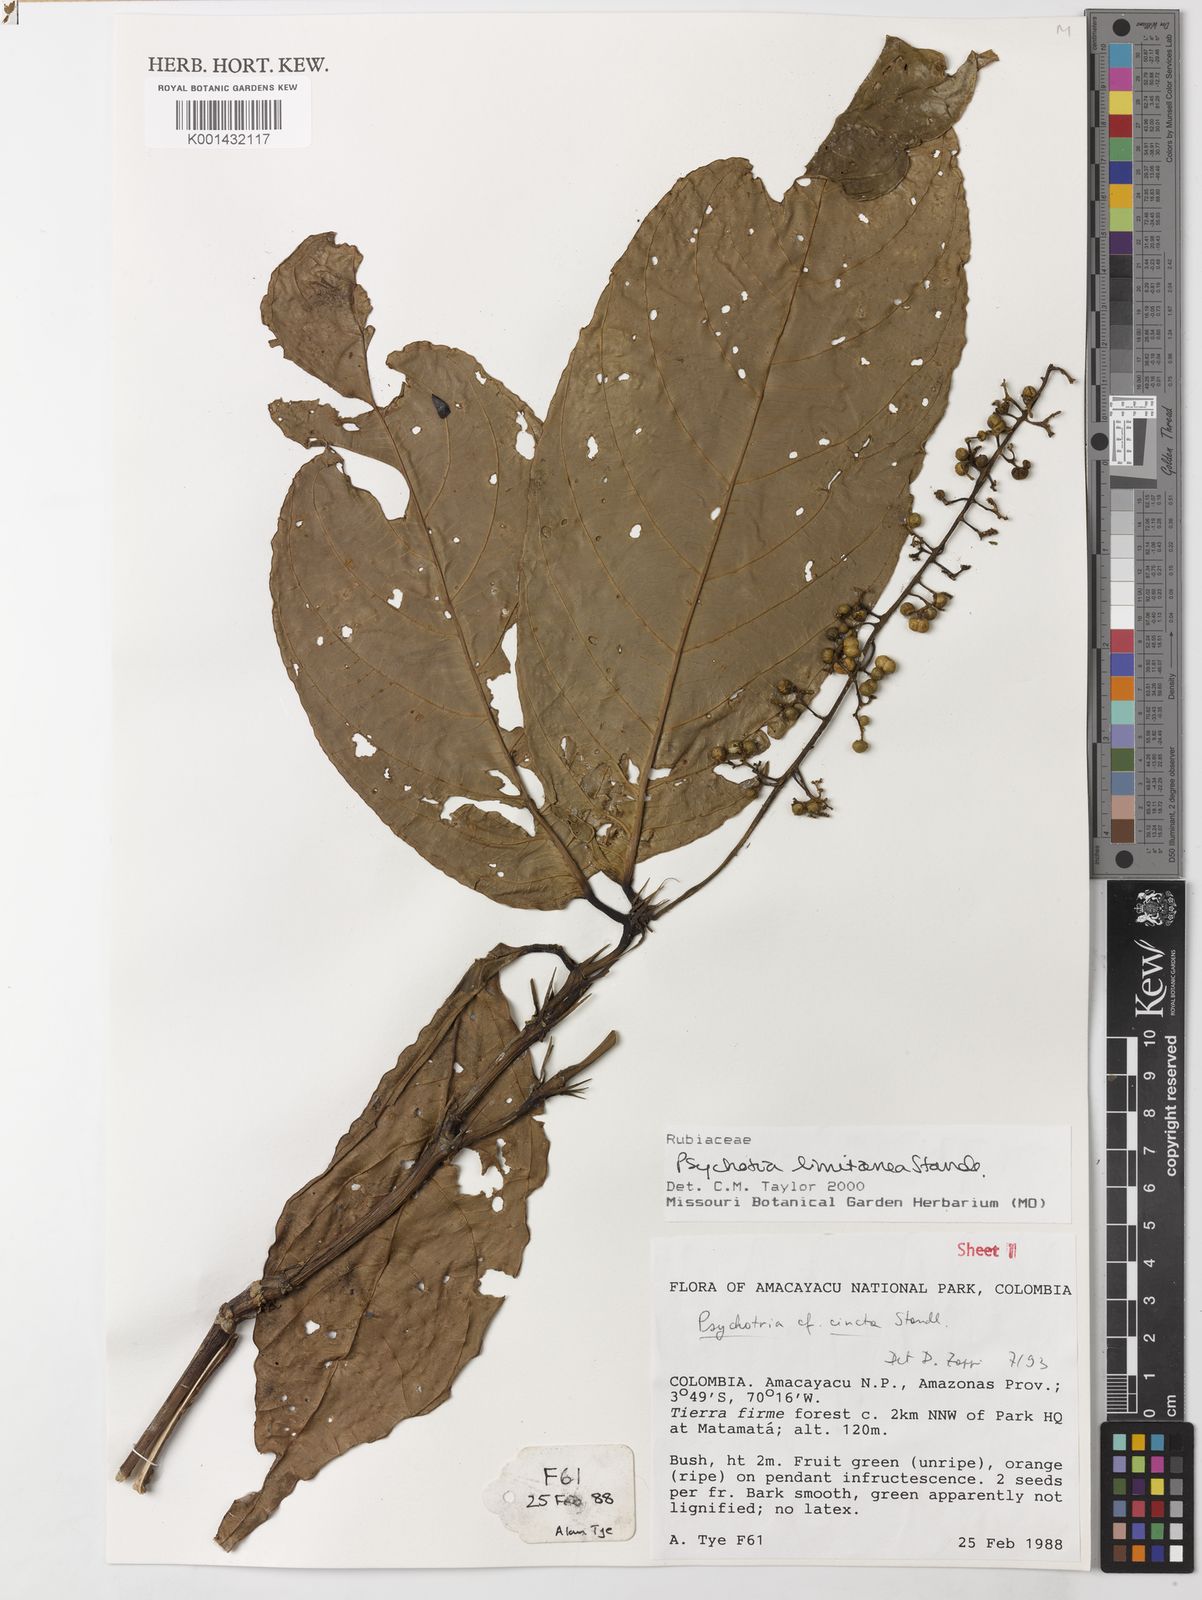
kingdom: Plantae
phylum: Tracheophyta
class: Magnoliopsida
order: Gentianales
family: Rubiaceae
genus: Psychotria
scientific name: Psychotria limitanea
